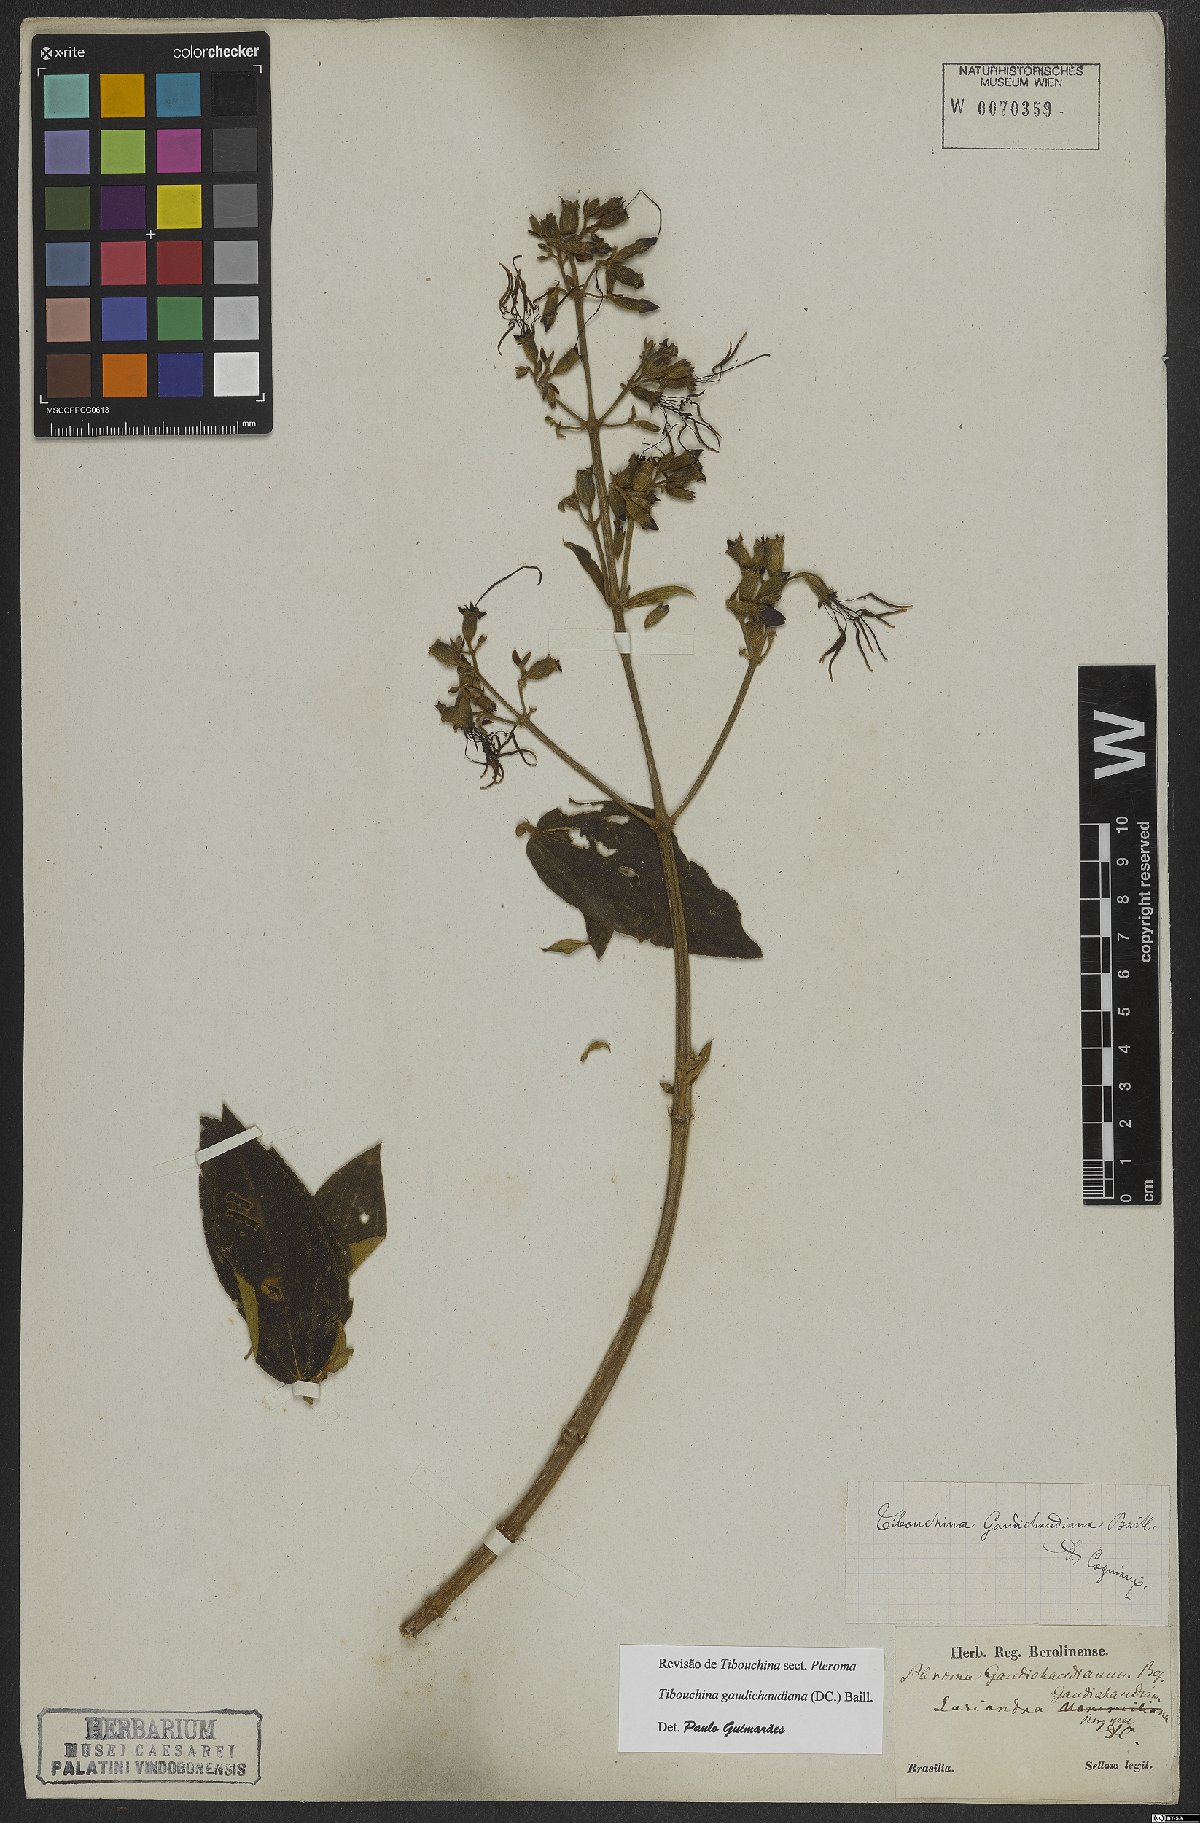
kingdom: Plantae
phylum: Tracheophyta
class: Magnoliopsida
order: Myrtales
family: Melastomataceae
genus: Pleroma
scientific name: Pleroma gaudichaudianum
